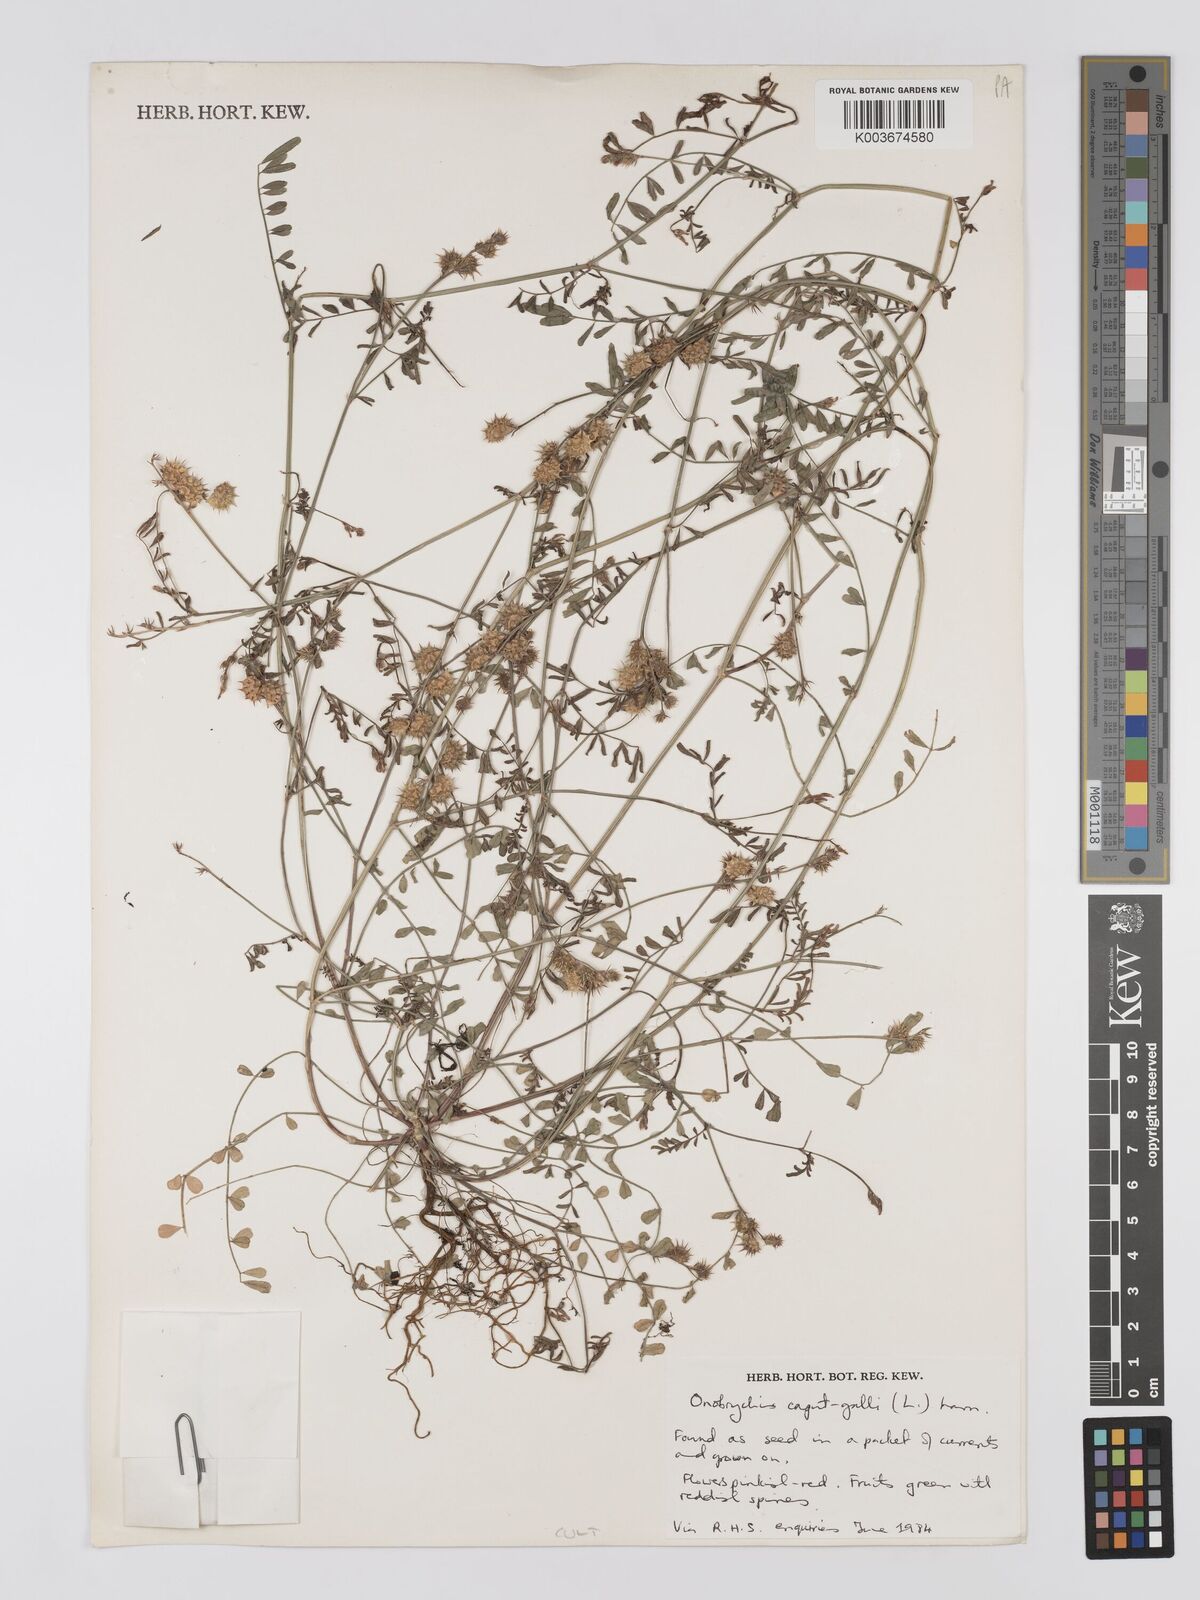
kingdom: Plantae
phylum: Tracheophyta
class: Magnoliopsida
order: Fabales
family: Fabaceae
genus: Onobrychis
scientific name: Onobrychis caput-galli
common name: Cockscomb sainfoin
